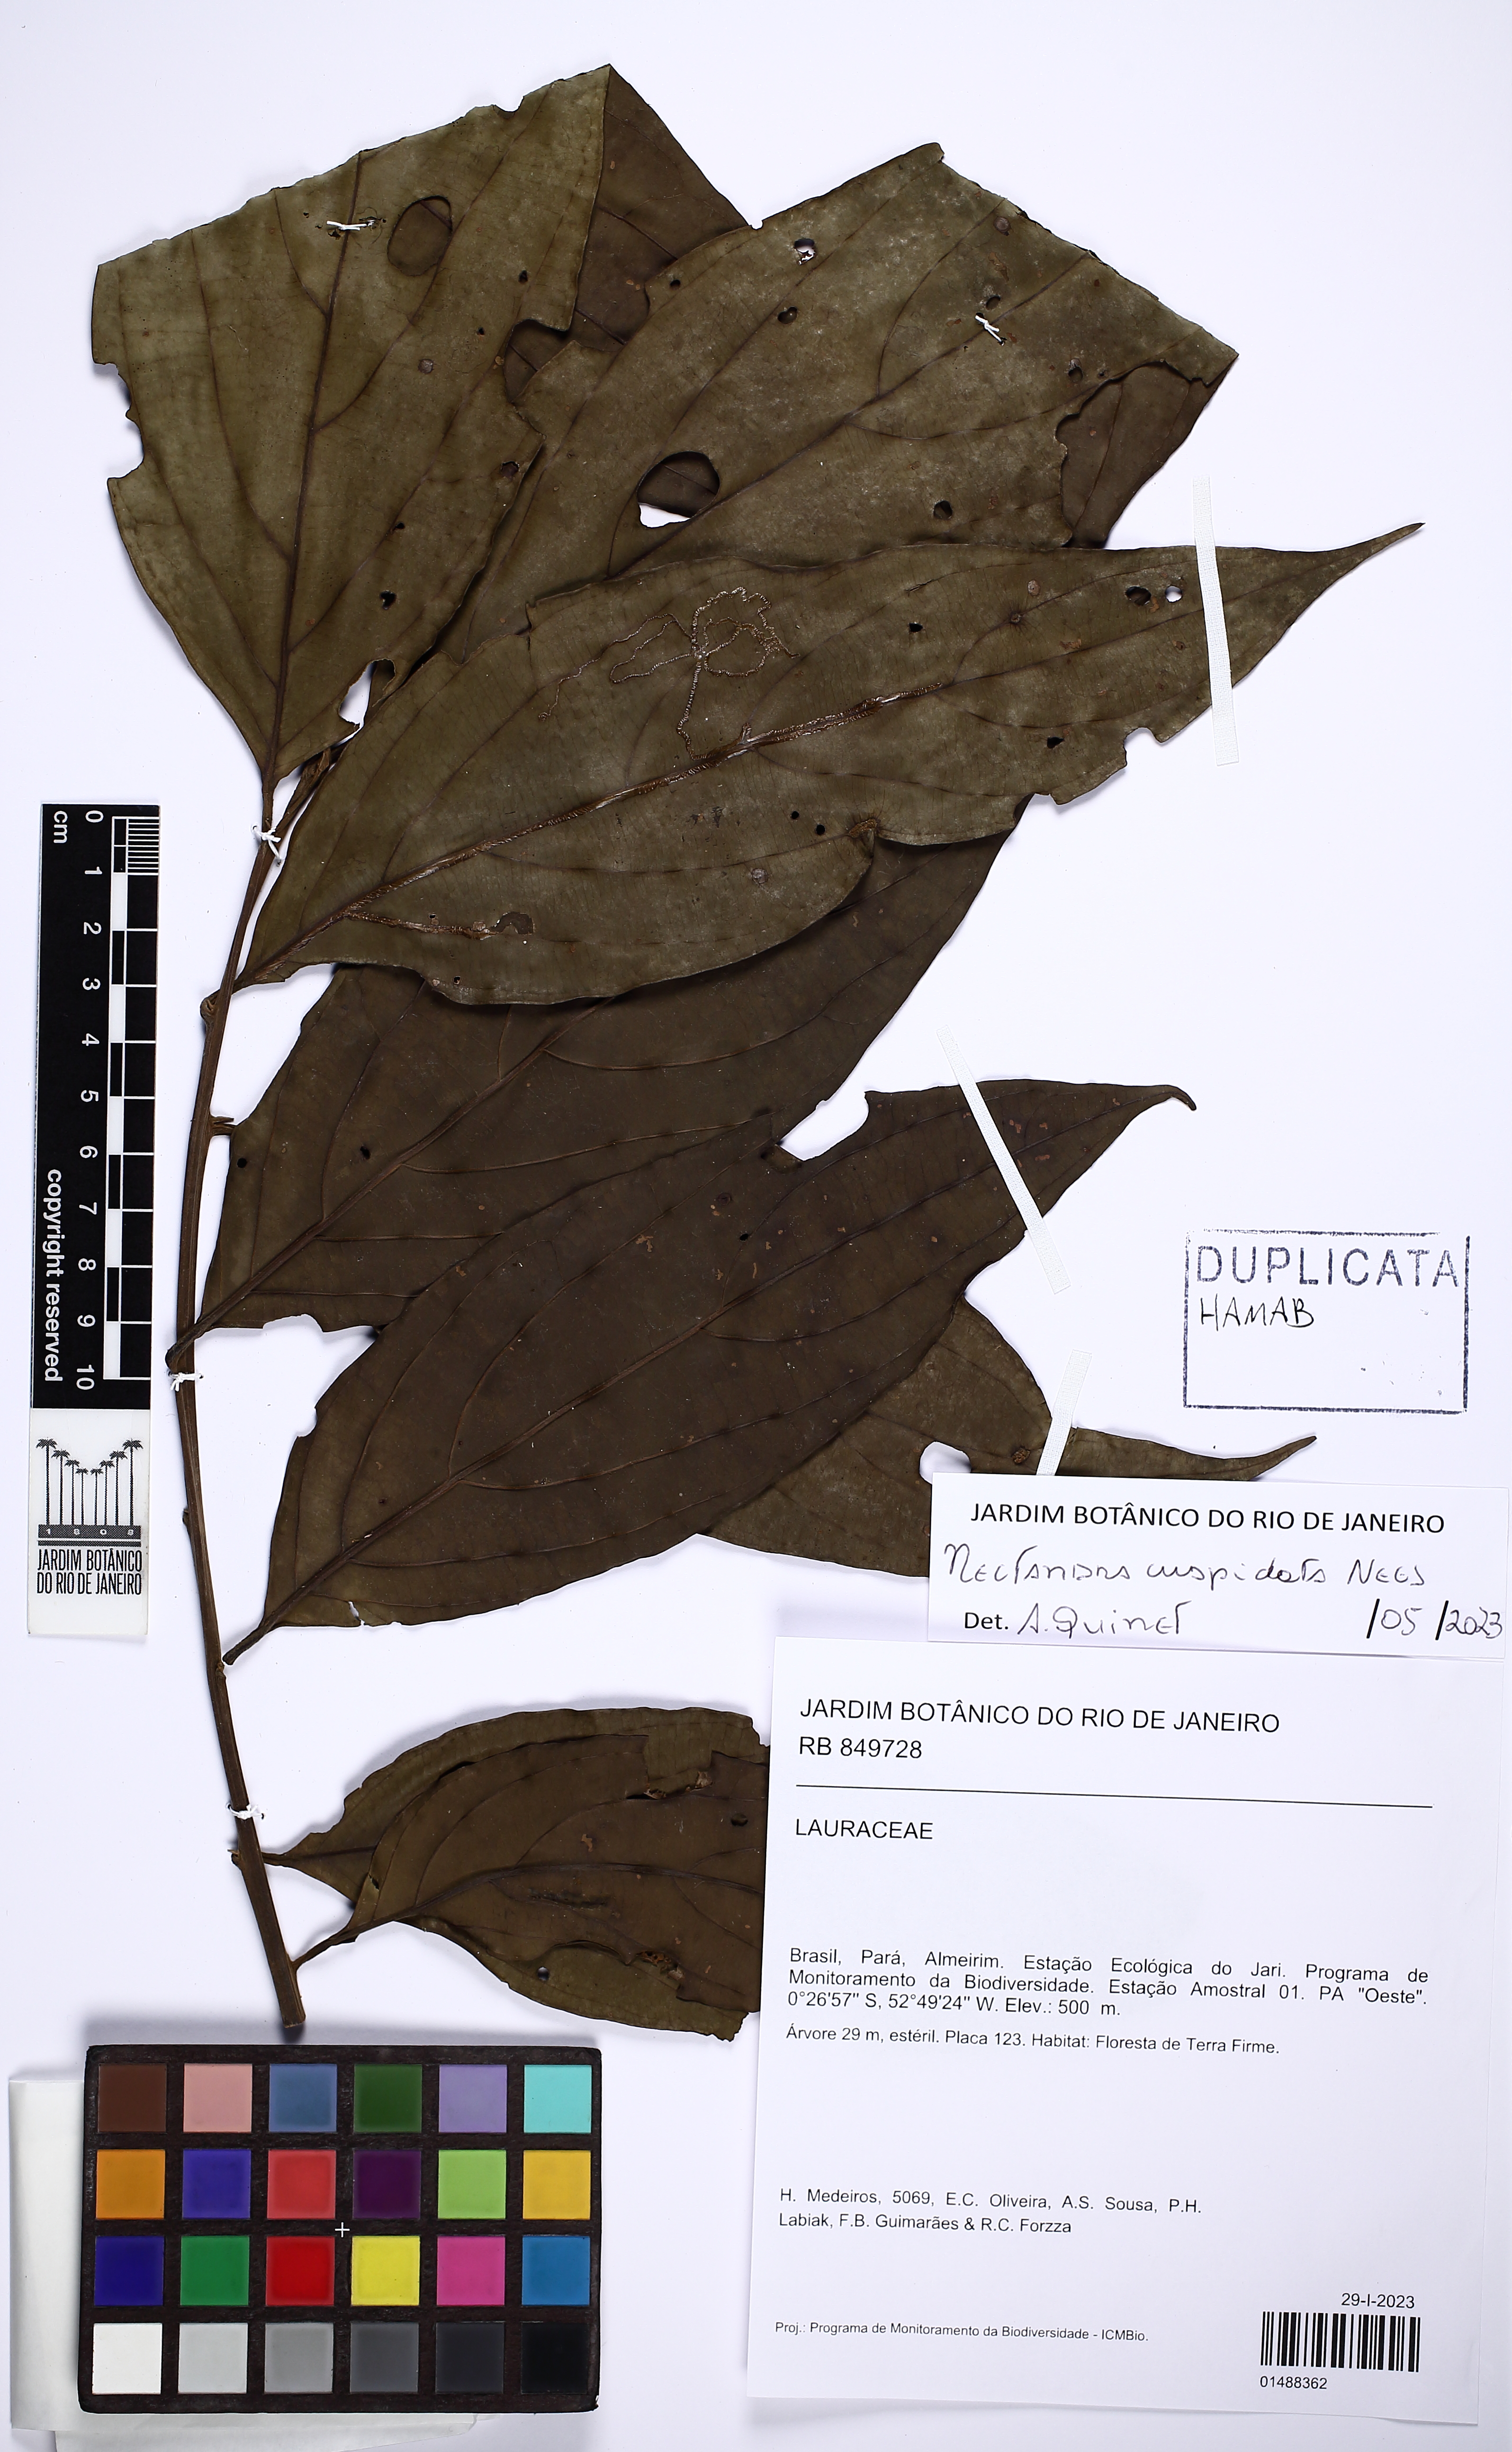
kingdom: Plantae
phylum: Tracheophyta
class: Magnoliopsida
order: Laurales
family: Lauraceae
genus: Nectandra
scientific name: Nectandra cuspidata
